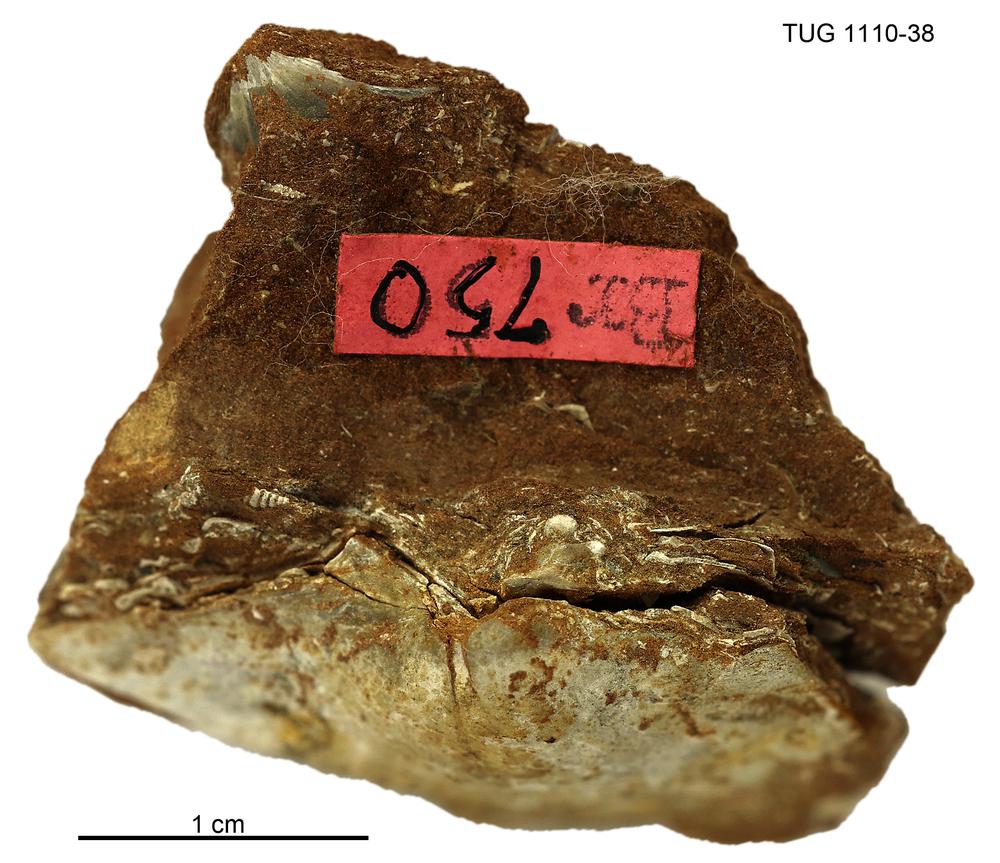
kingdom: Animalia
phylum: Brachiopoda
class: Rhynchonellata
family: Porambonitidae
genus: Porambonites
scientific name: Porambonites
